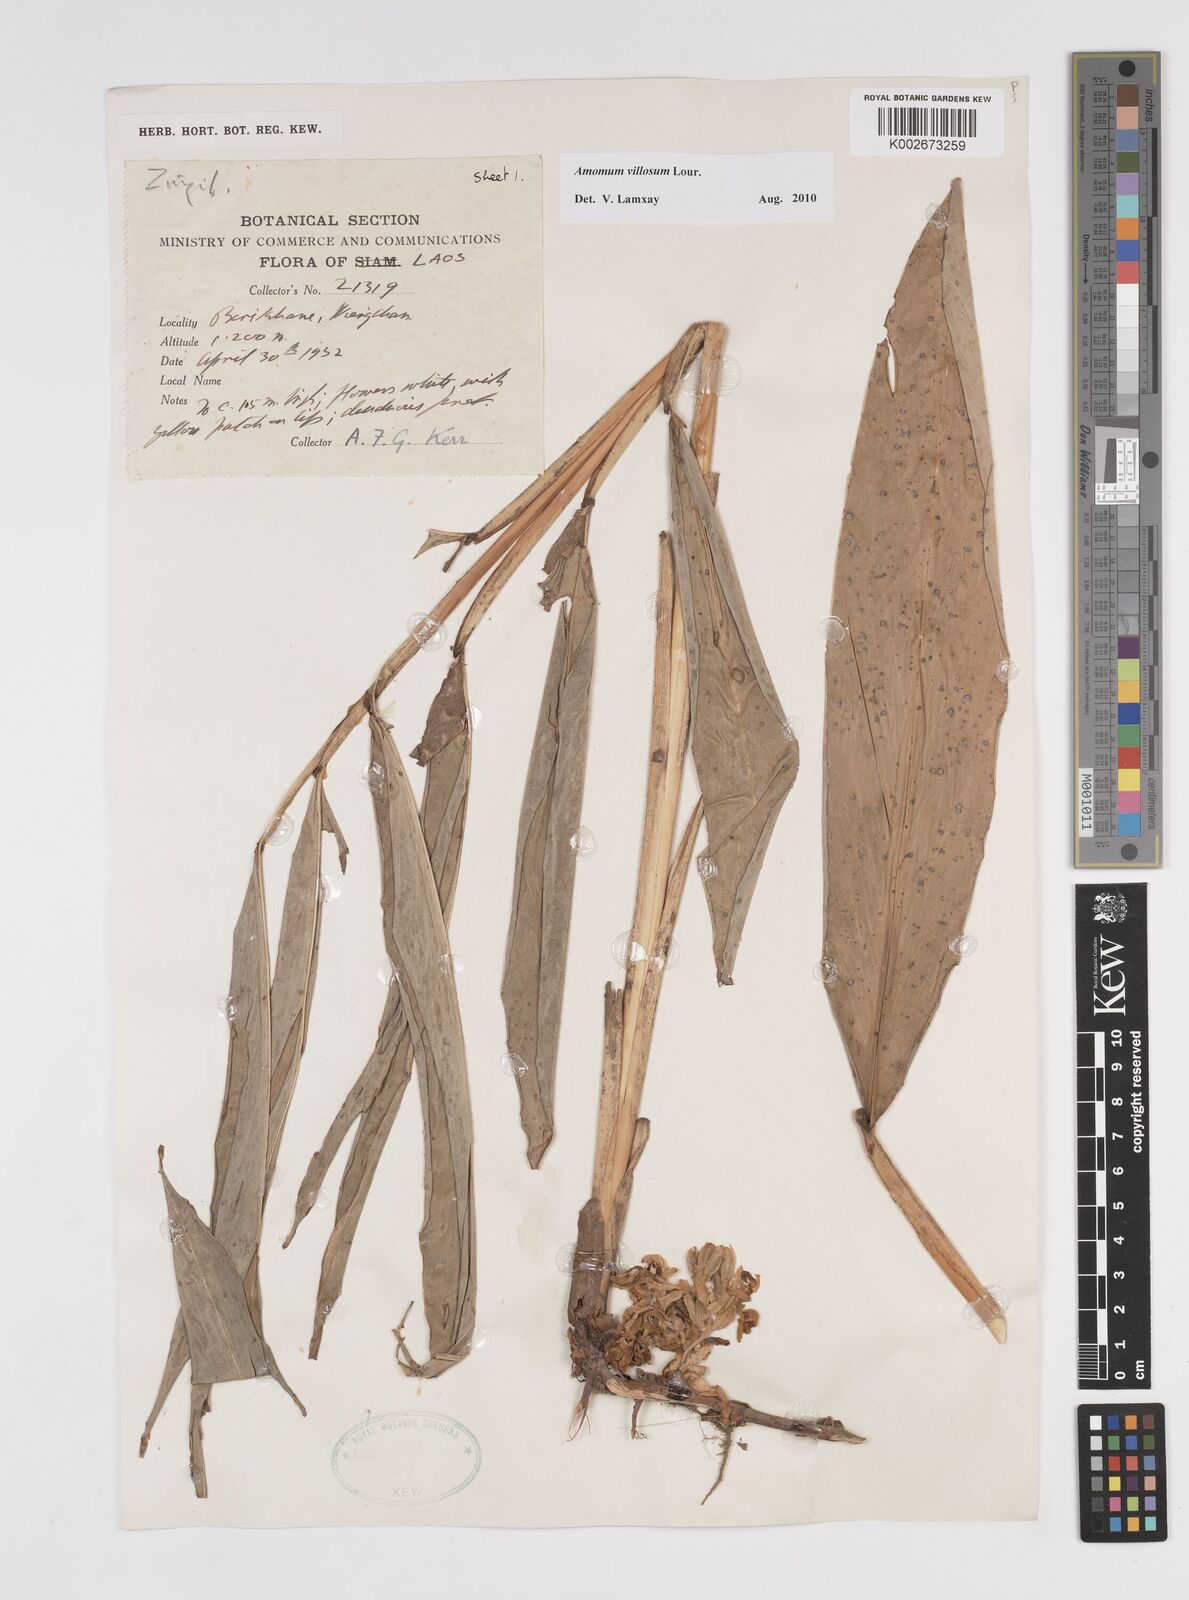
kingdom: Plantae
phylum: Tracheophyta
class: Liliopsida
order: Zingiberales
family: Zingiberaceae
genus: Wurfbainia
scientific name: Wurfbainia villosa
